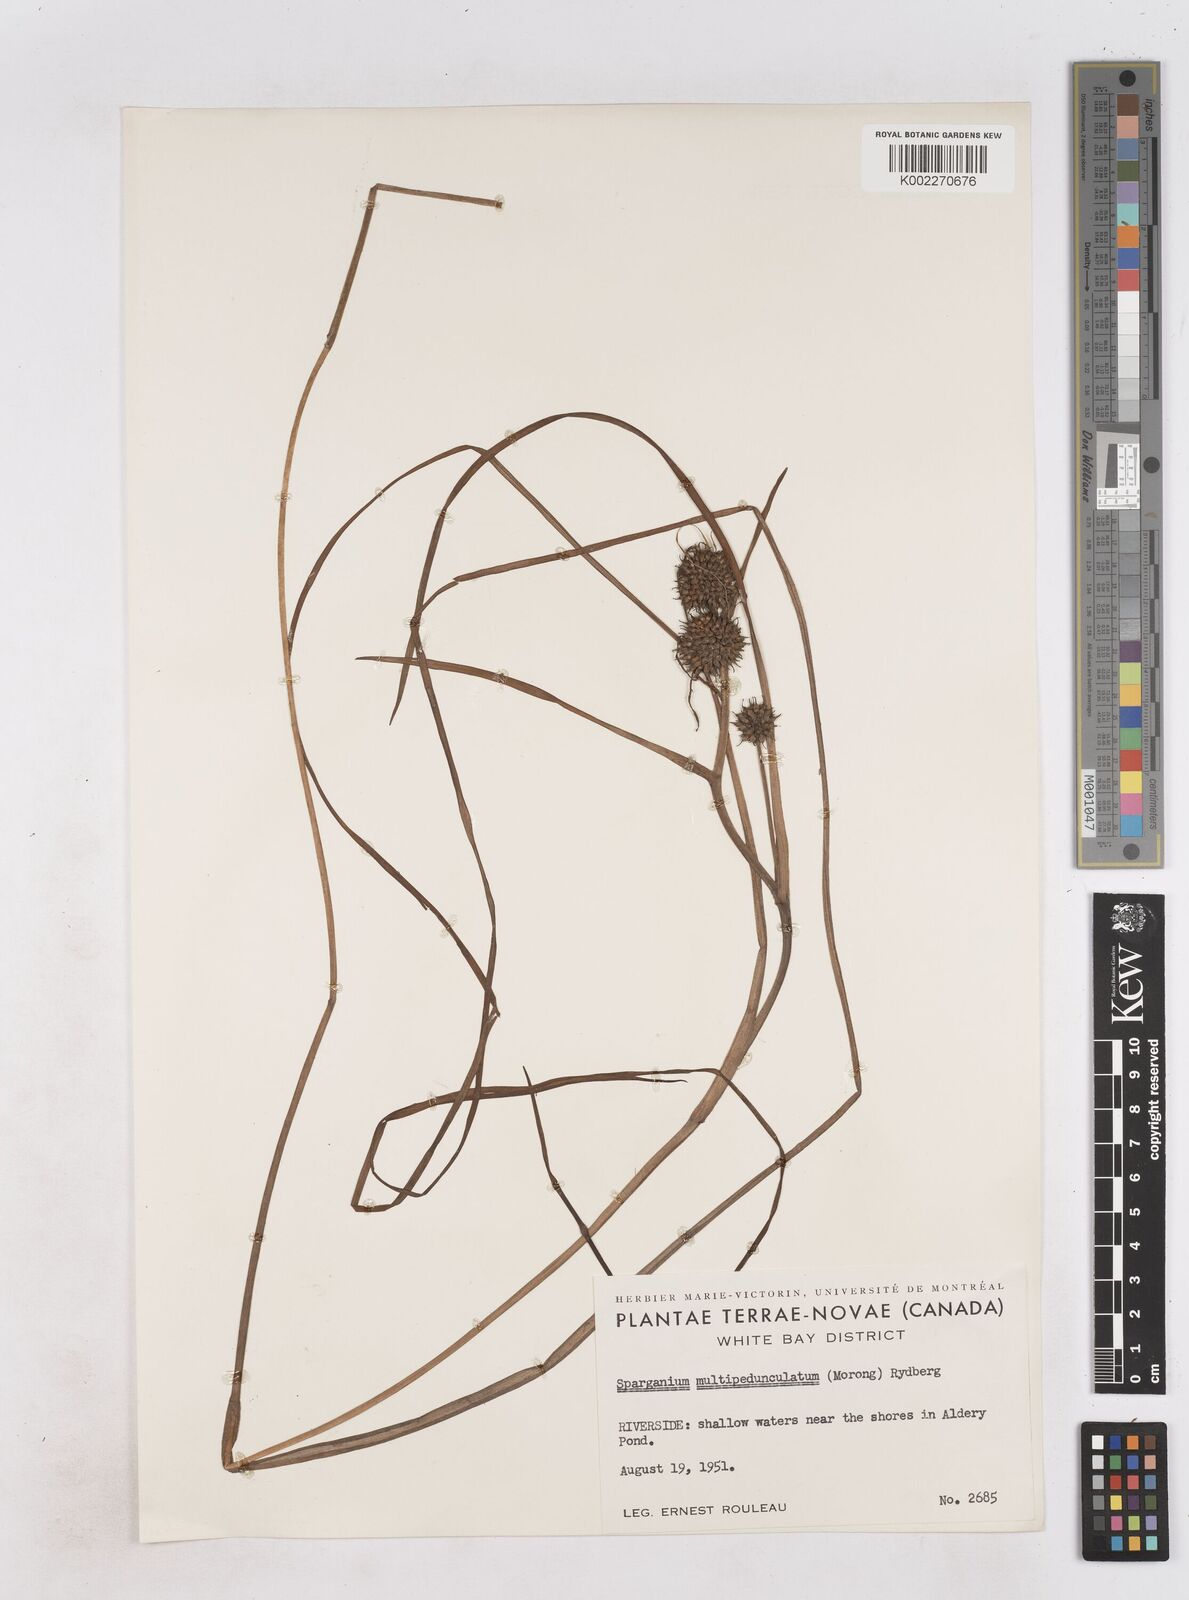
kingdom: Plantae
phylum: Tracheophyta
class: Liliopsida
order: Poales
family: Typhaceae
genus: Sparganium
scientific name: Sparganium emersum
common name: Unbranched bur-reed
